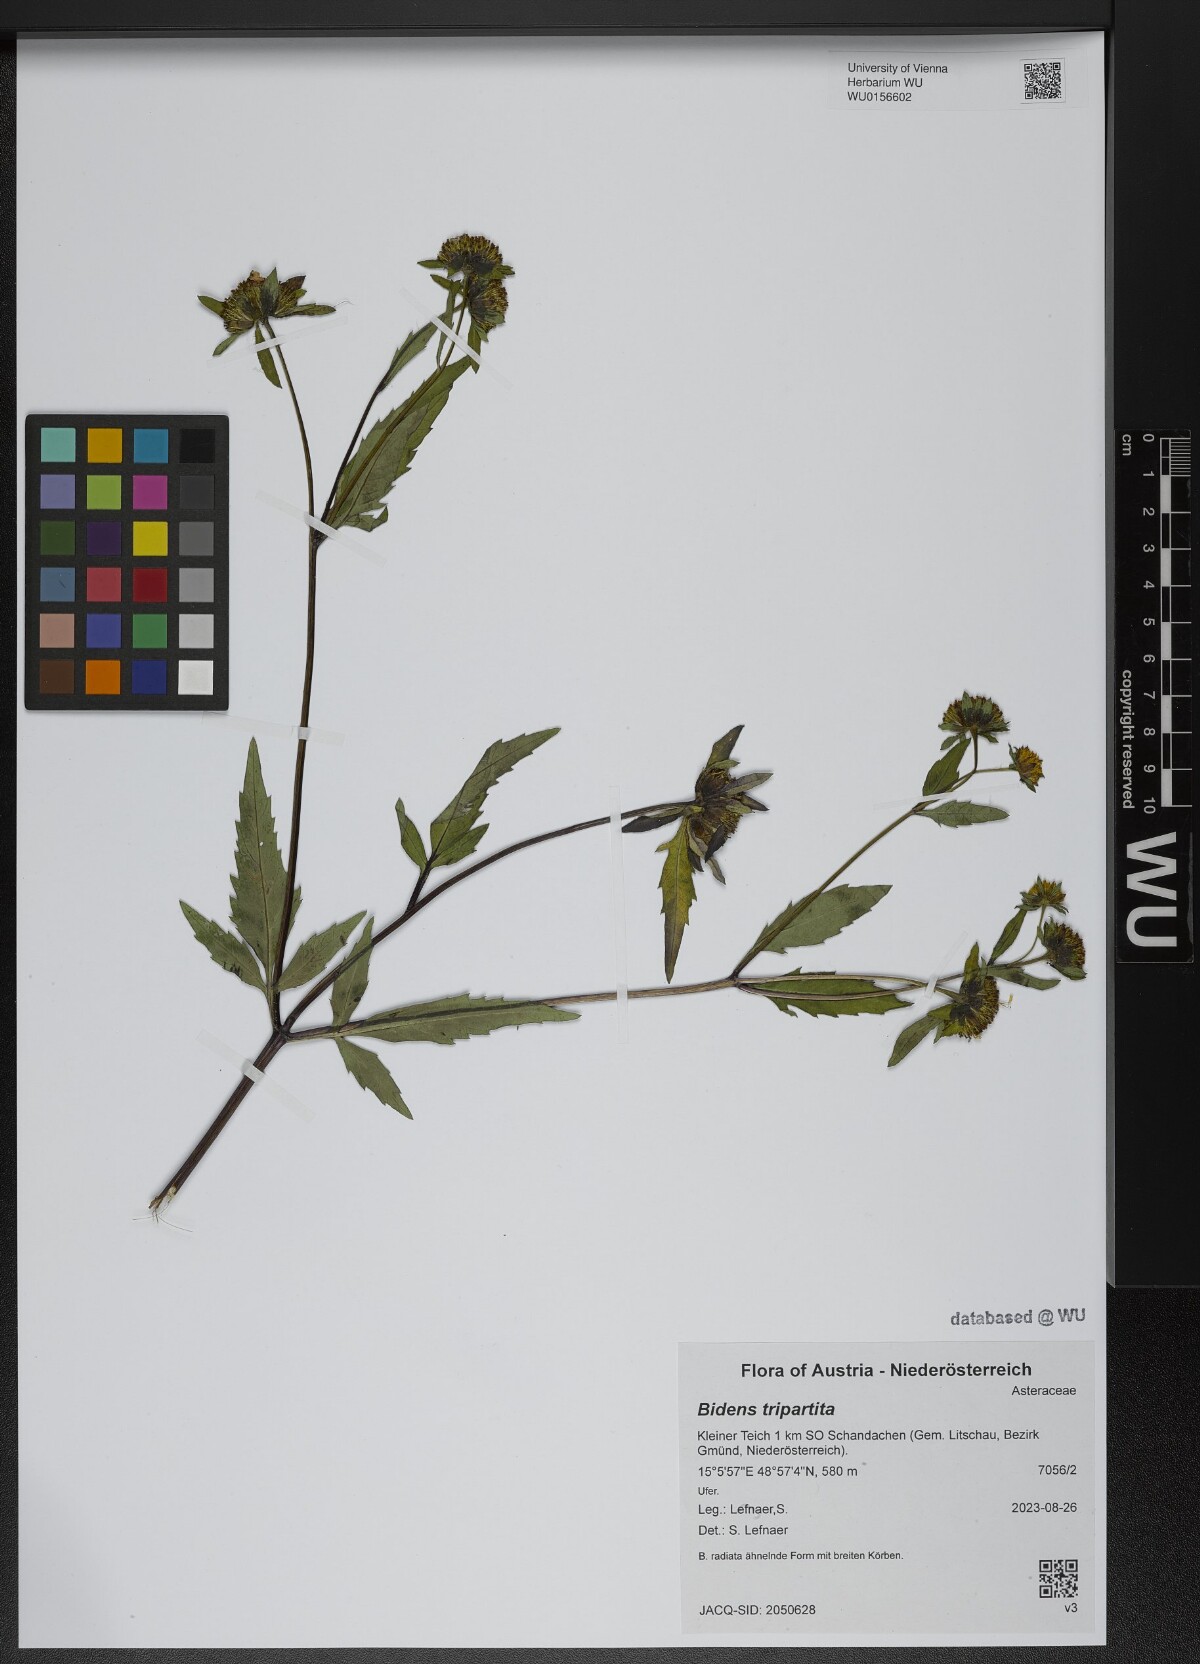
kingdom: Plantae
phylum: Tracheophyta
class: Magnoliopsida
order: Asterales
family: Asteraceae
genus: Bidens
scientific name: Bidens tripartita
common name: Trifid bur-marigold
